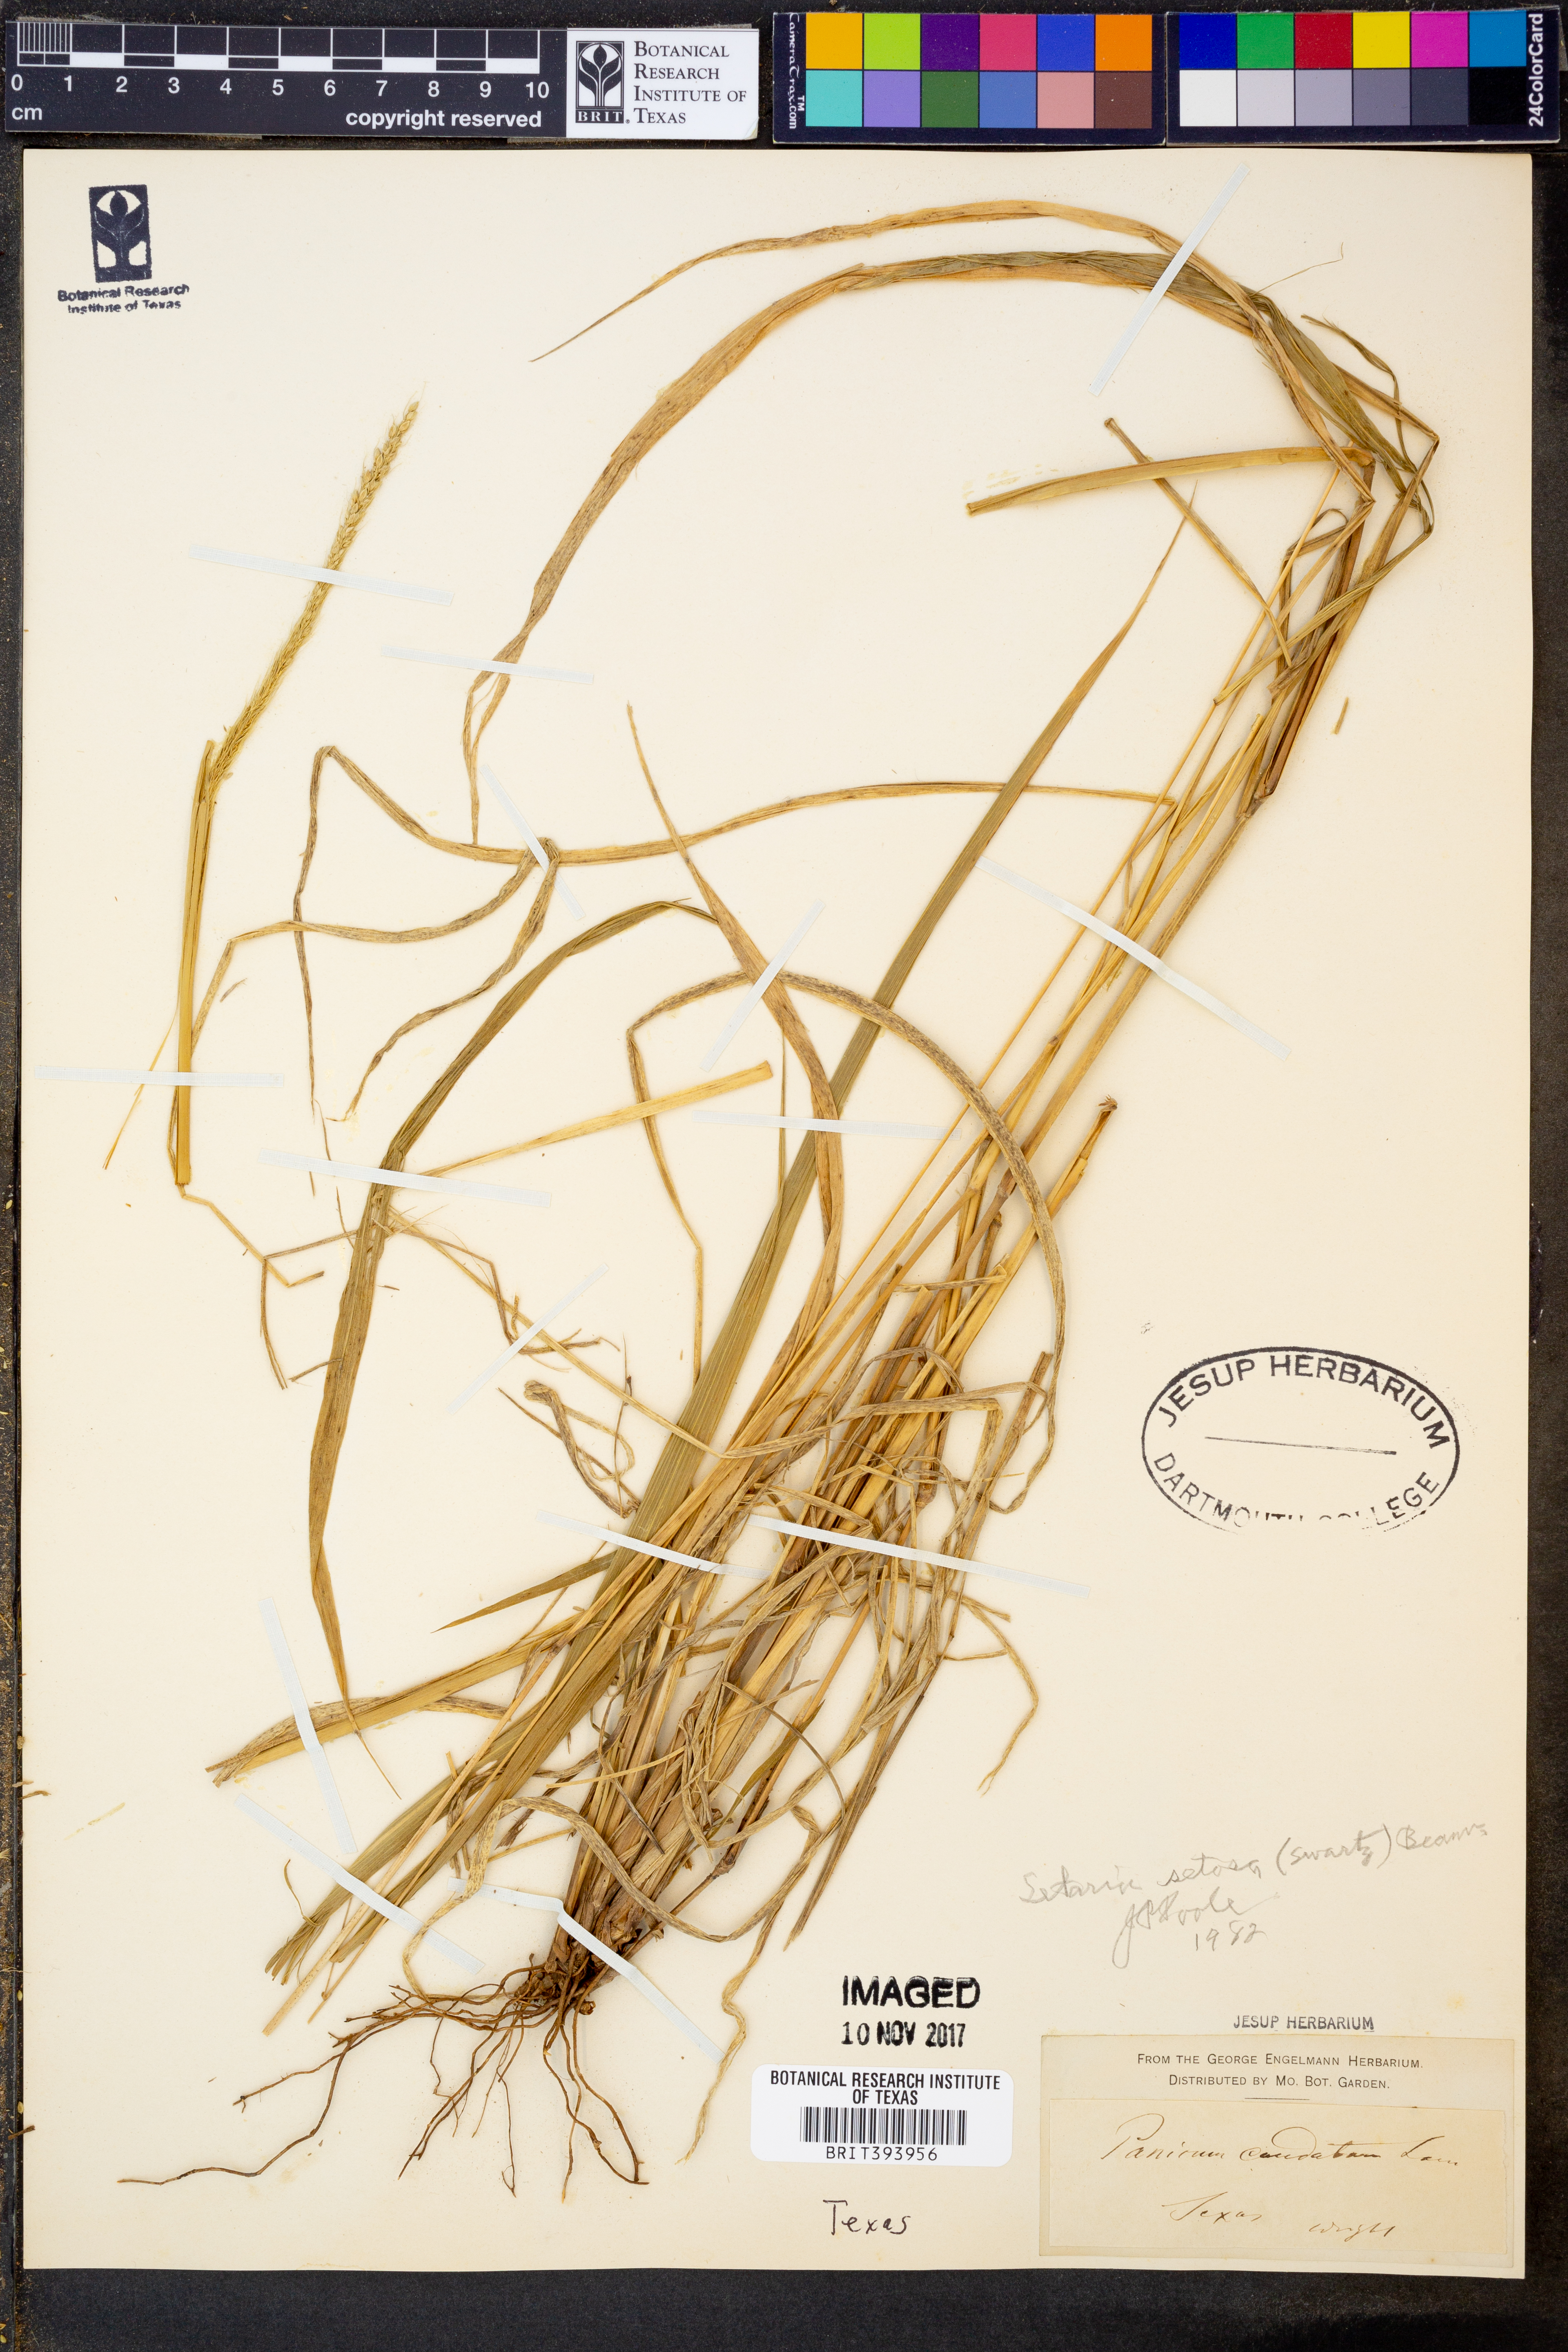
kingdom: Plantae
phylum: Tracheophyta
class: Liliopsida
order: Poales
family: Poaceae
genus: Setaria
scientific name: Setaria setosa
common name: West indies bristle grass
